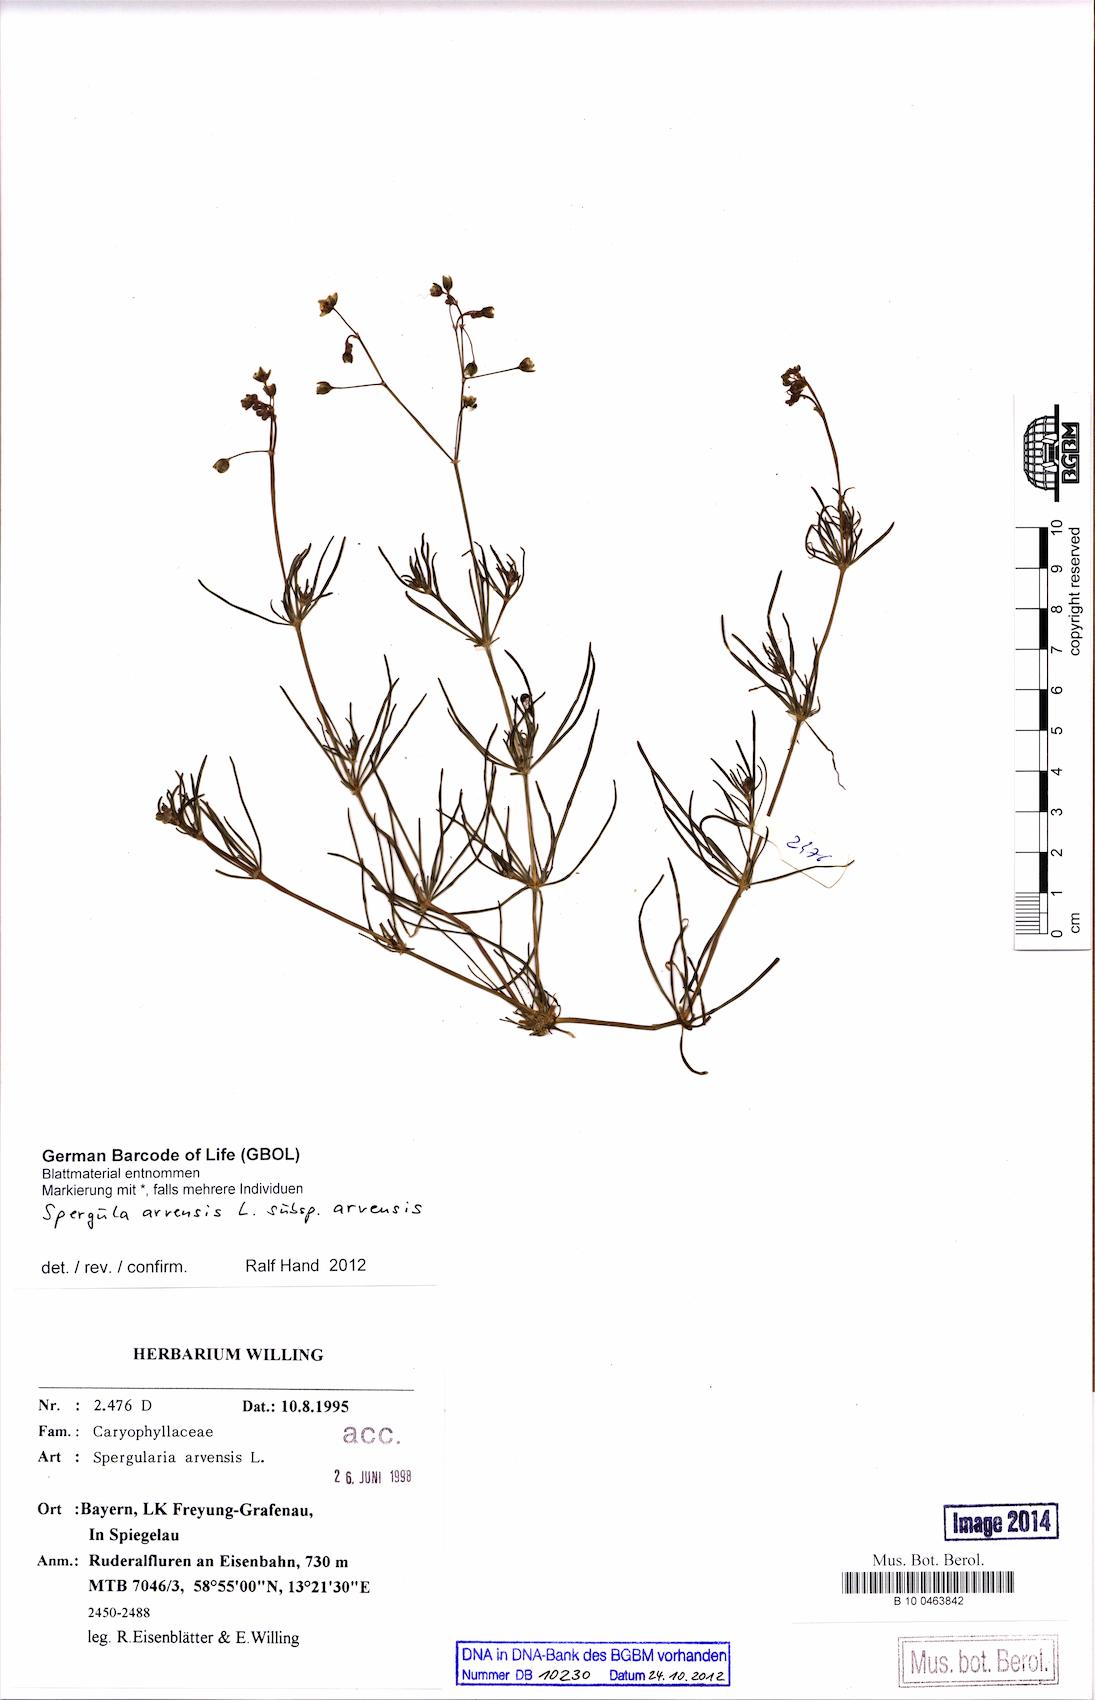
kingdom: Plantae
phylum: Tracheophyta
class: Magnoliopsida
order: Caryophyllales
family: Caryophyllaceae
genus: Spergula
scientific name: Spergula arvensis
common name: Corn spurrey
